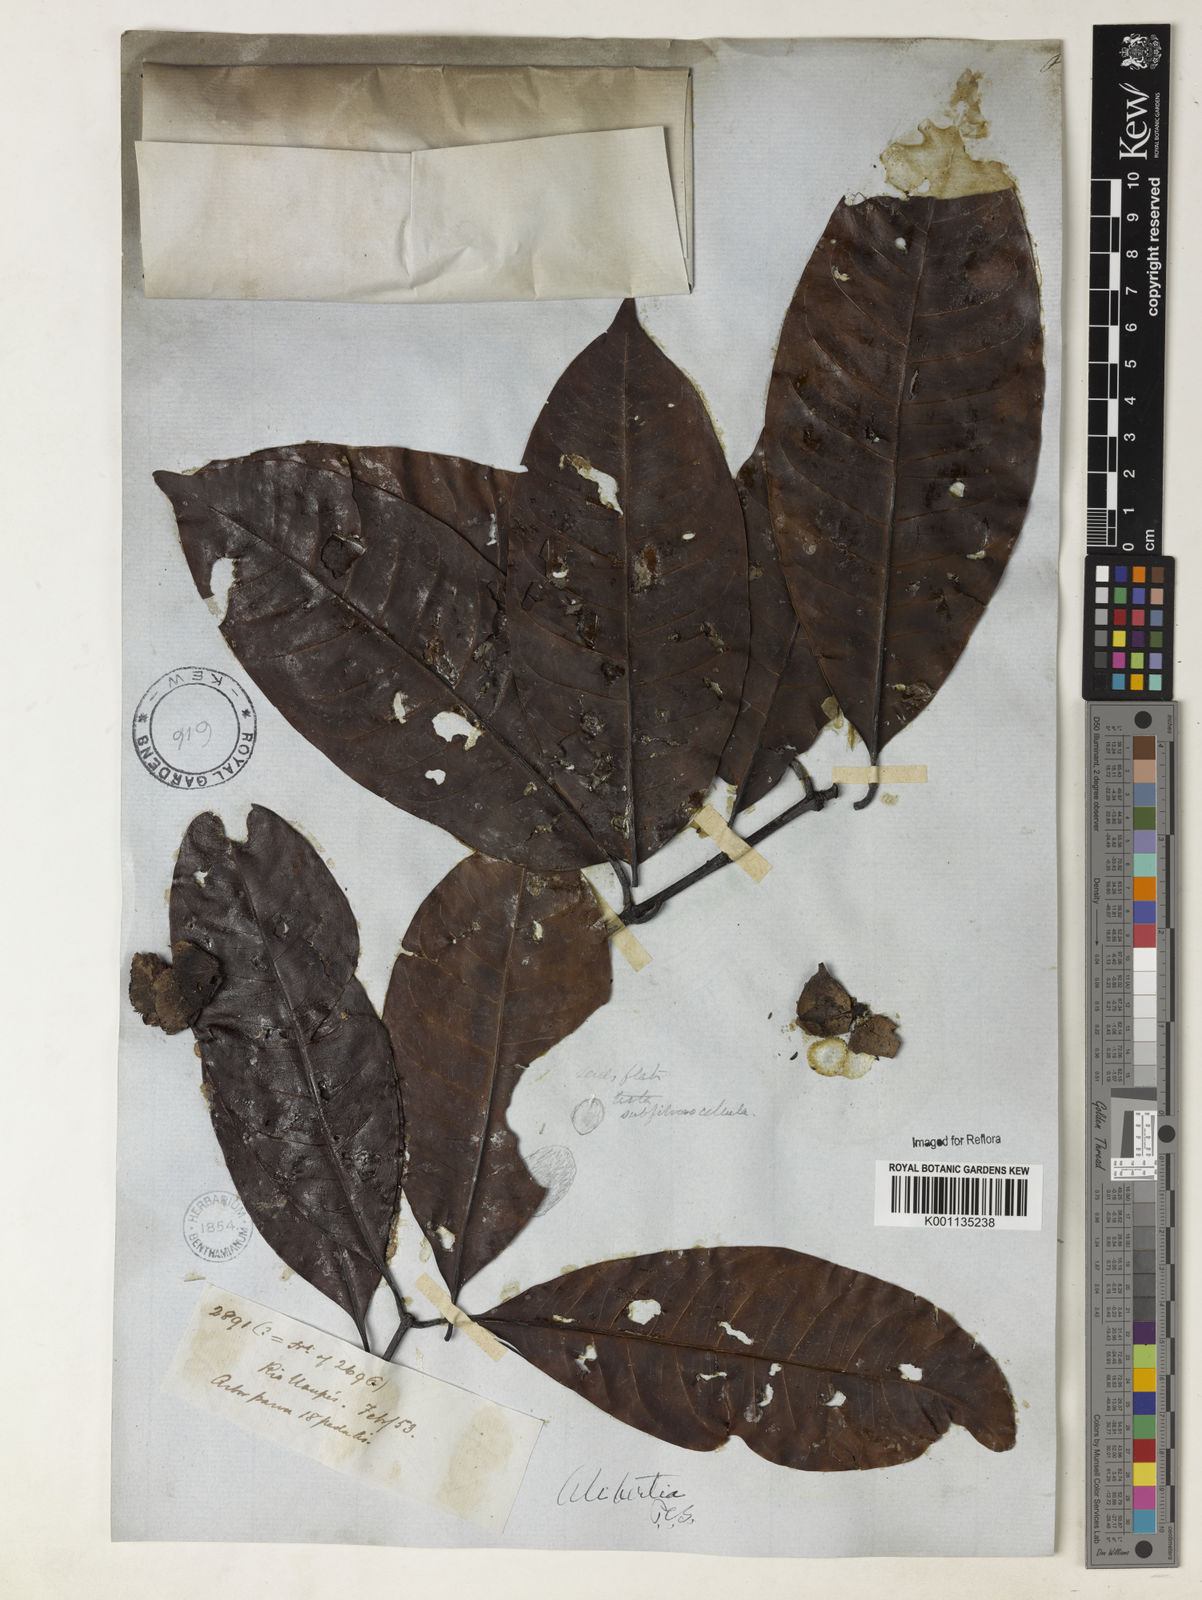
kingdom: Plantae
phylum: Tracheophyta
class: Magnoliopsida
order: Gentianales
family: Rubiaceae
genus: Stachyarrhena
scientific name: Stachyarrhena
